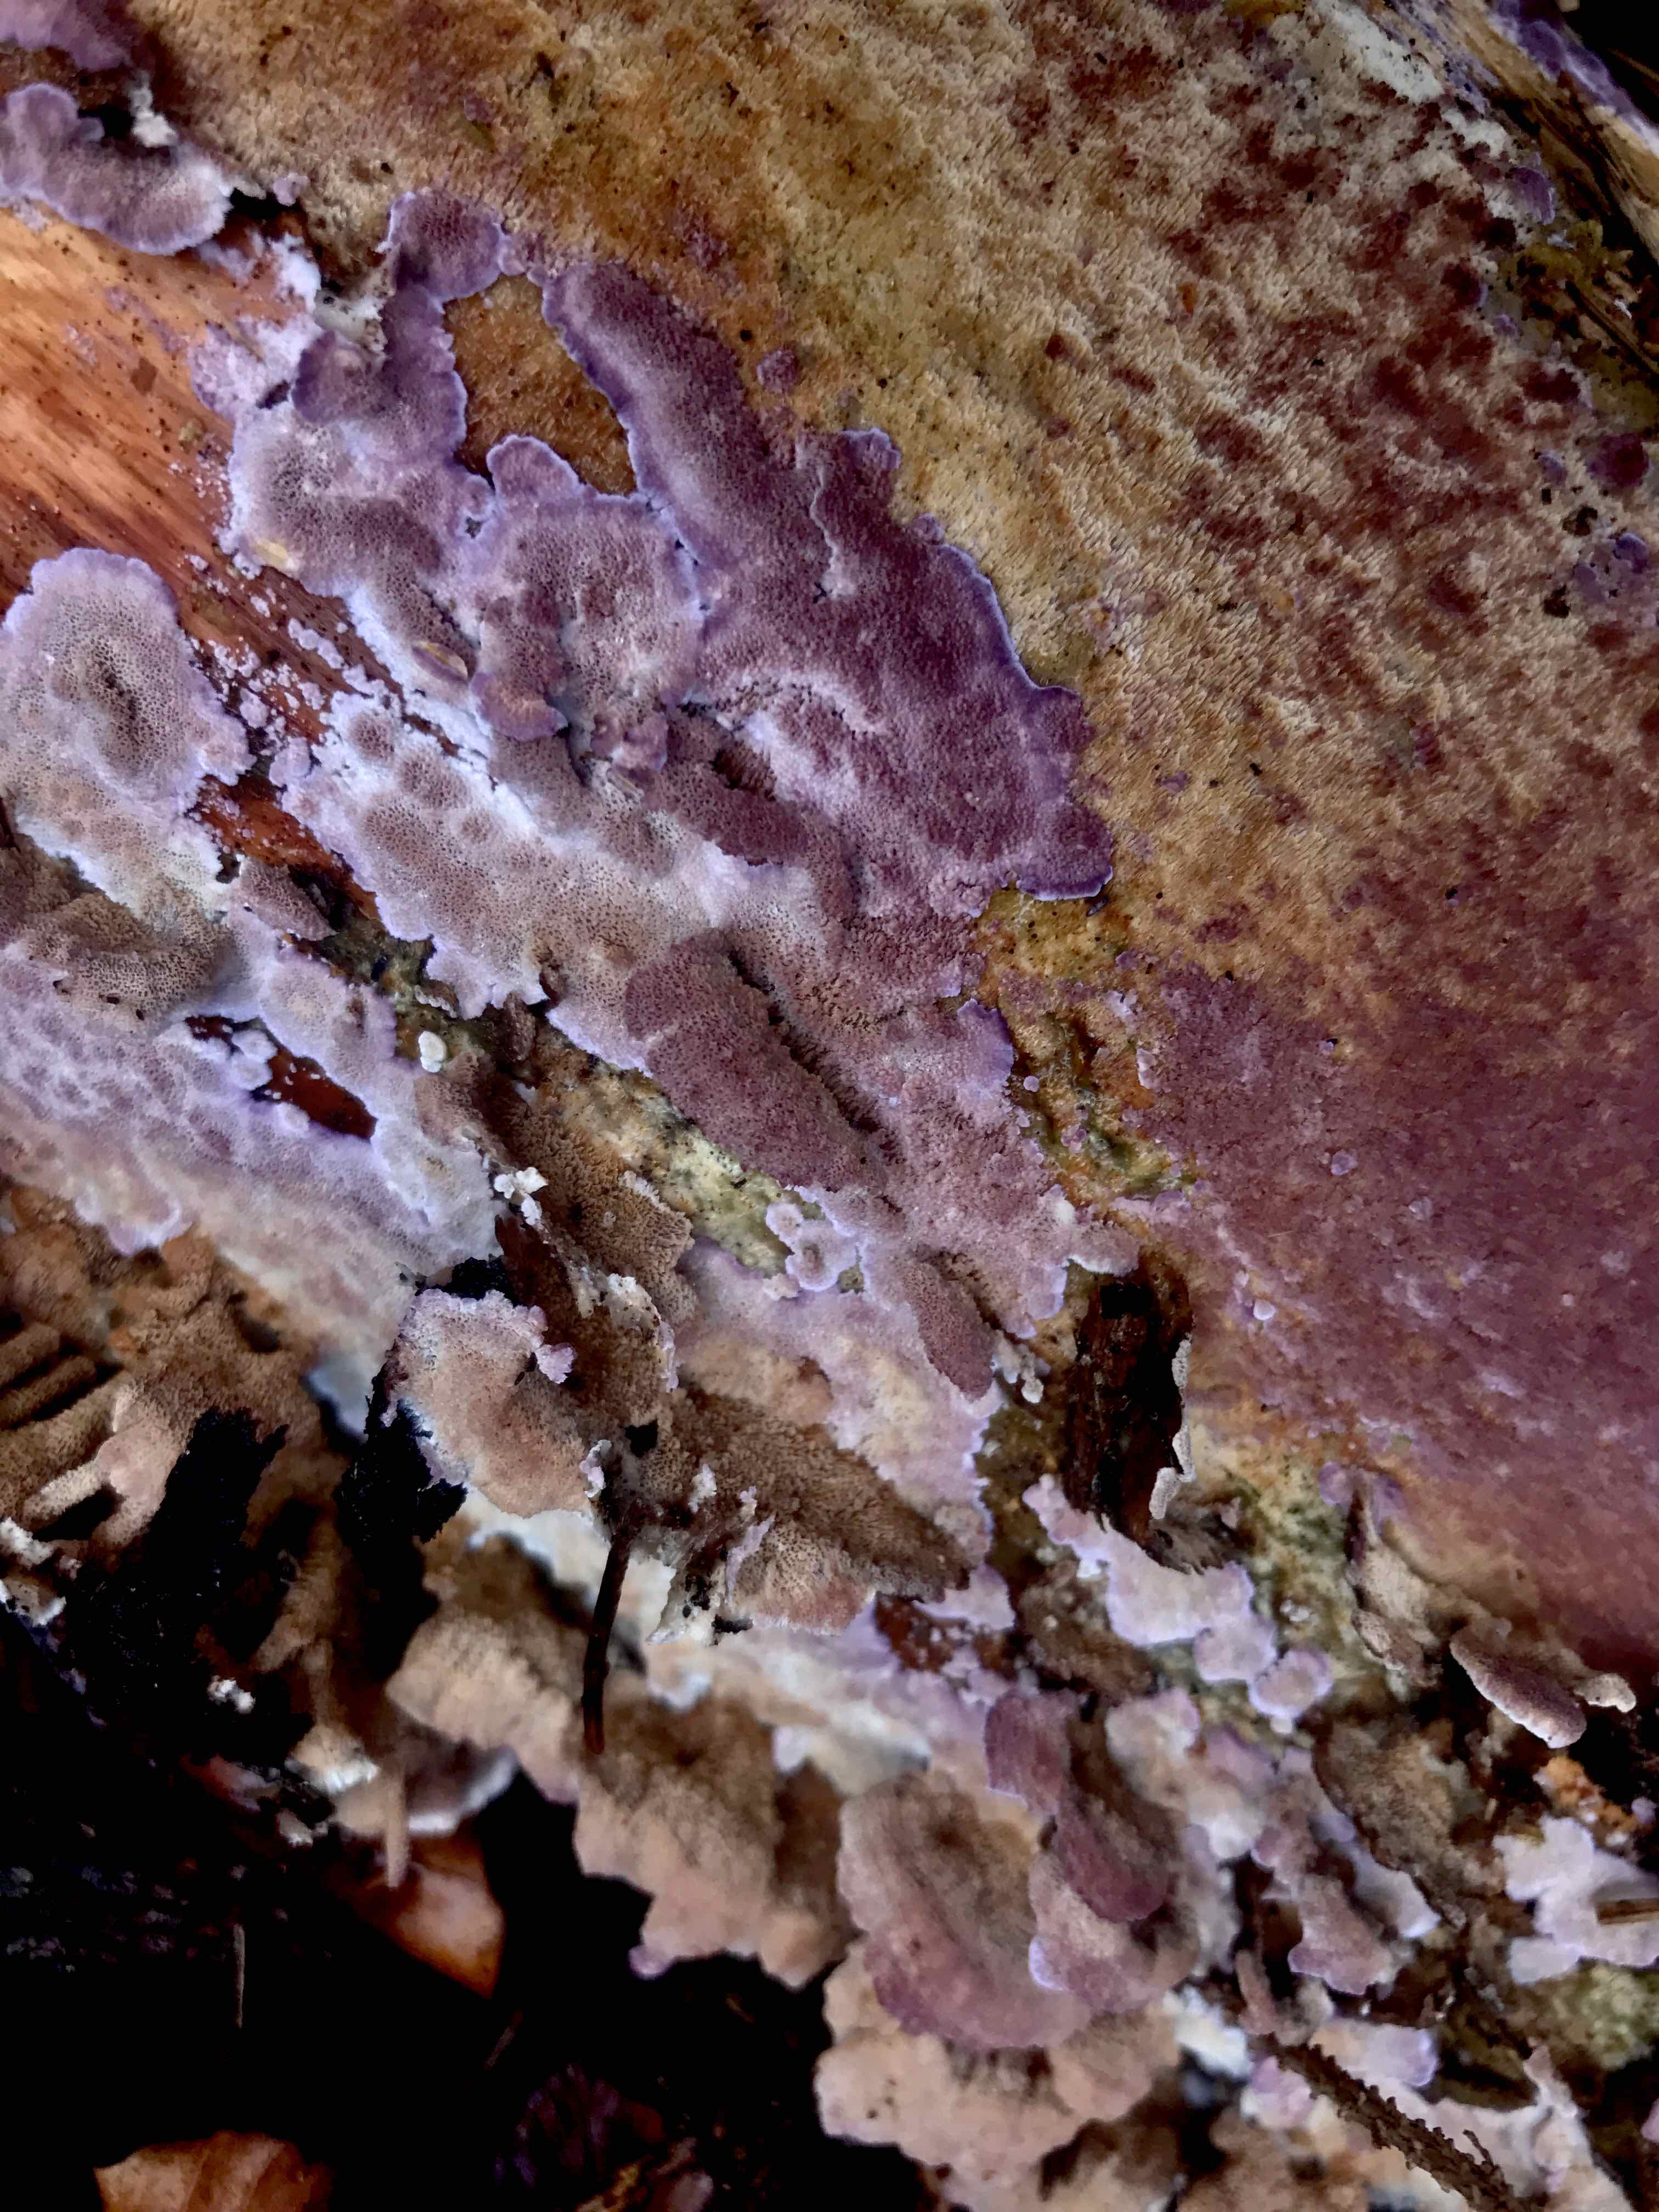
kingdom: Fungi
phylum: Basidiomycota
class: Agaricomycetes
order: Hymenochaetales
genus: Trichaptum
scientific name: Trichaptum abietinum
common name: almindelig violporesvamp
